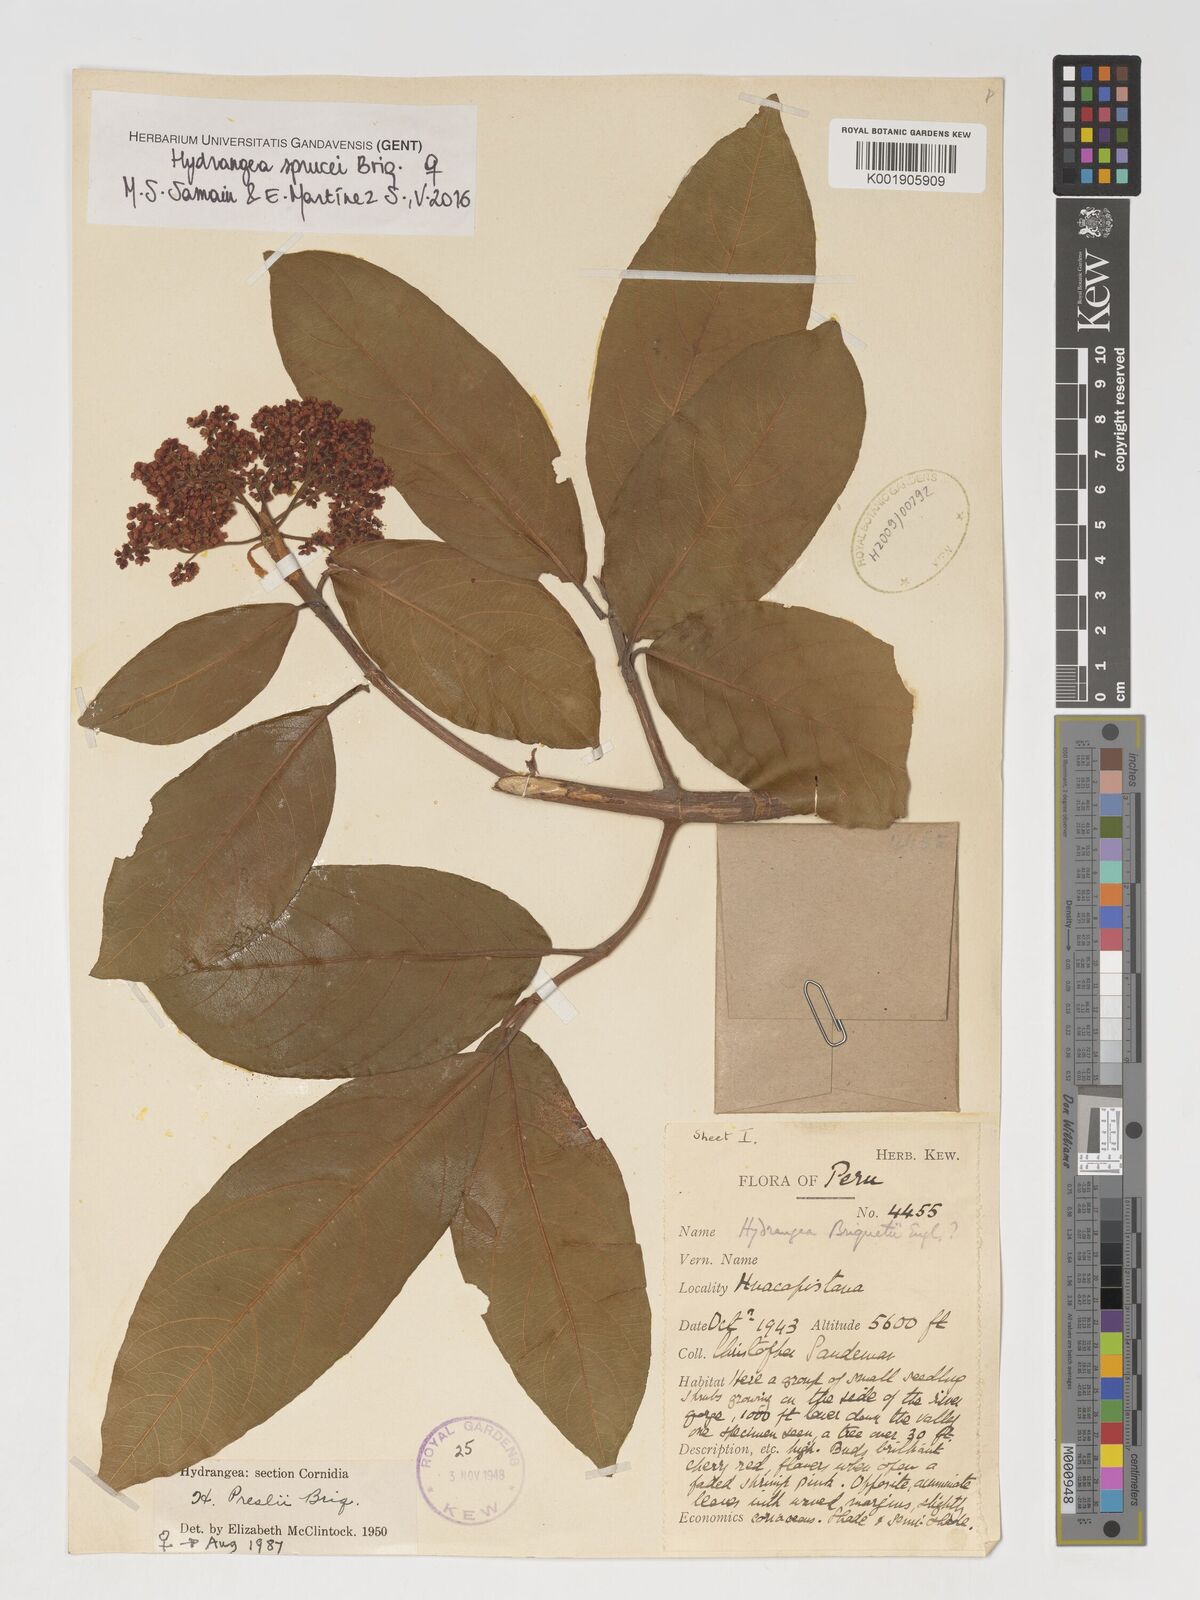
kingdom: Plantae
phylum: Tracheophyta
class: Magnoliopsida
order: Cornales
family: Hydrangeaceae
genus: Hydrangea
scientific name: Hydrangea diplostemona
